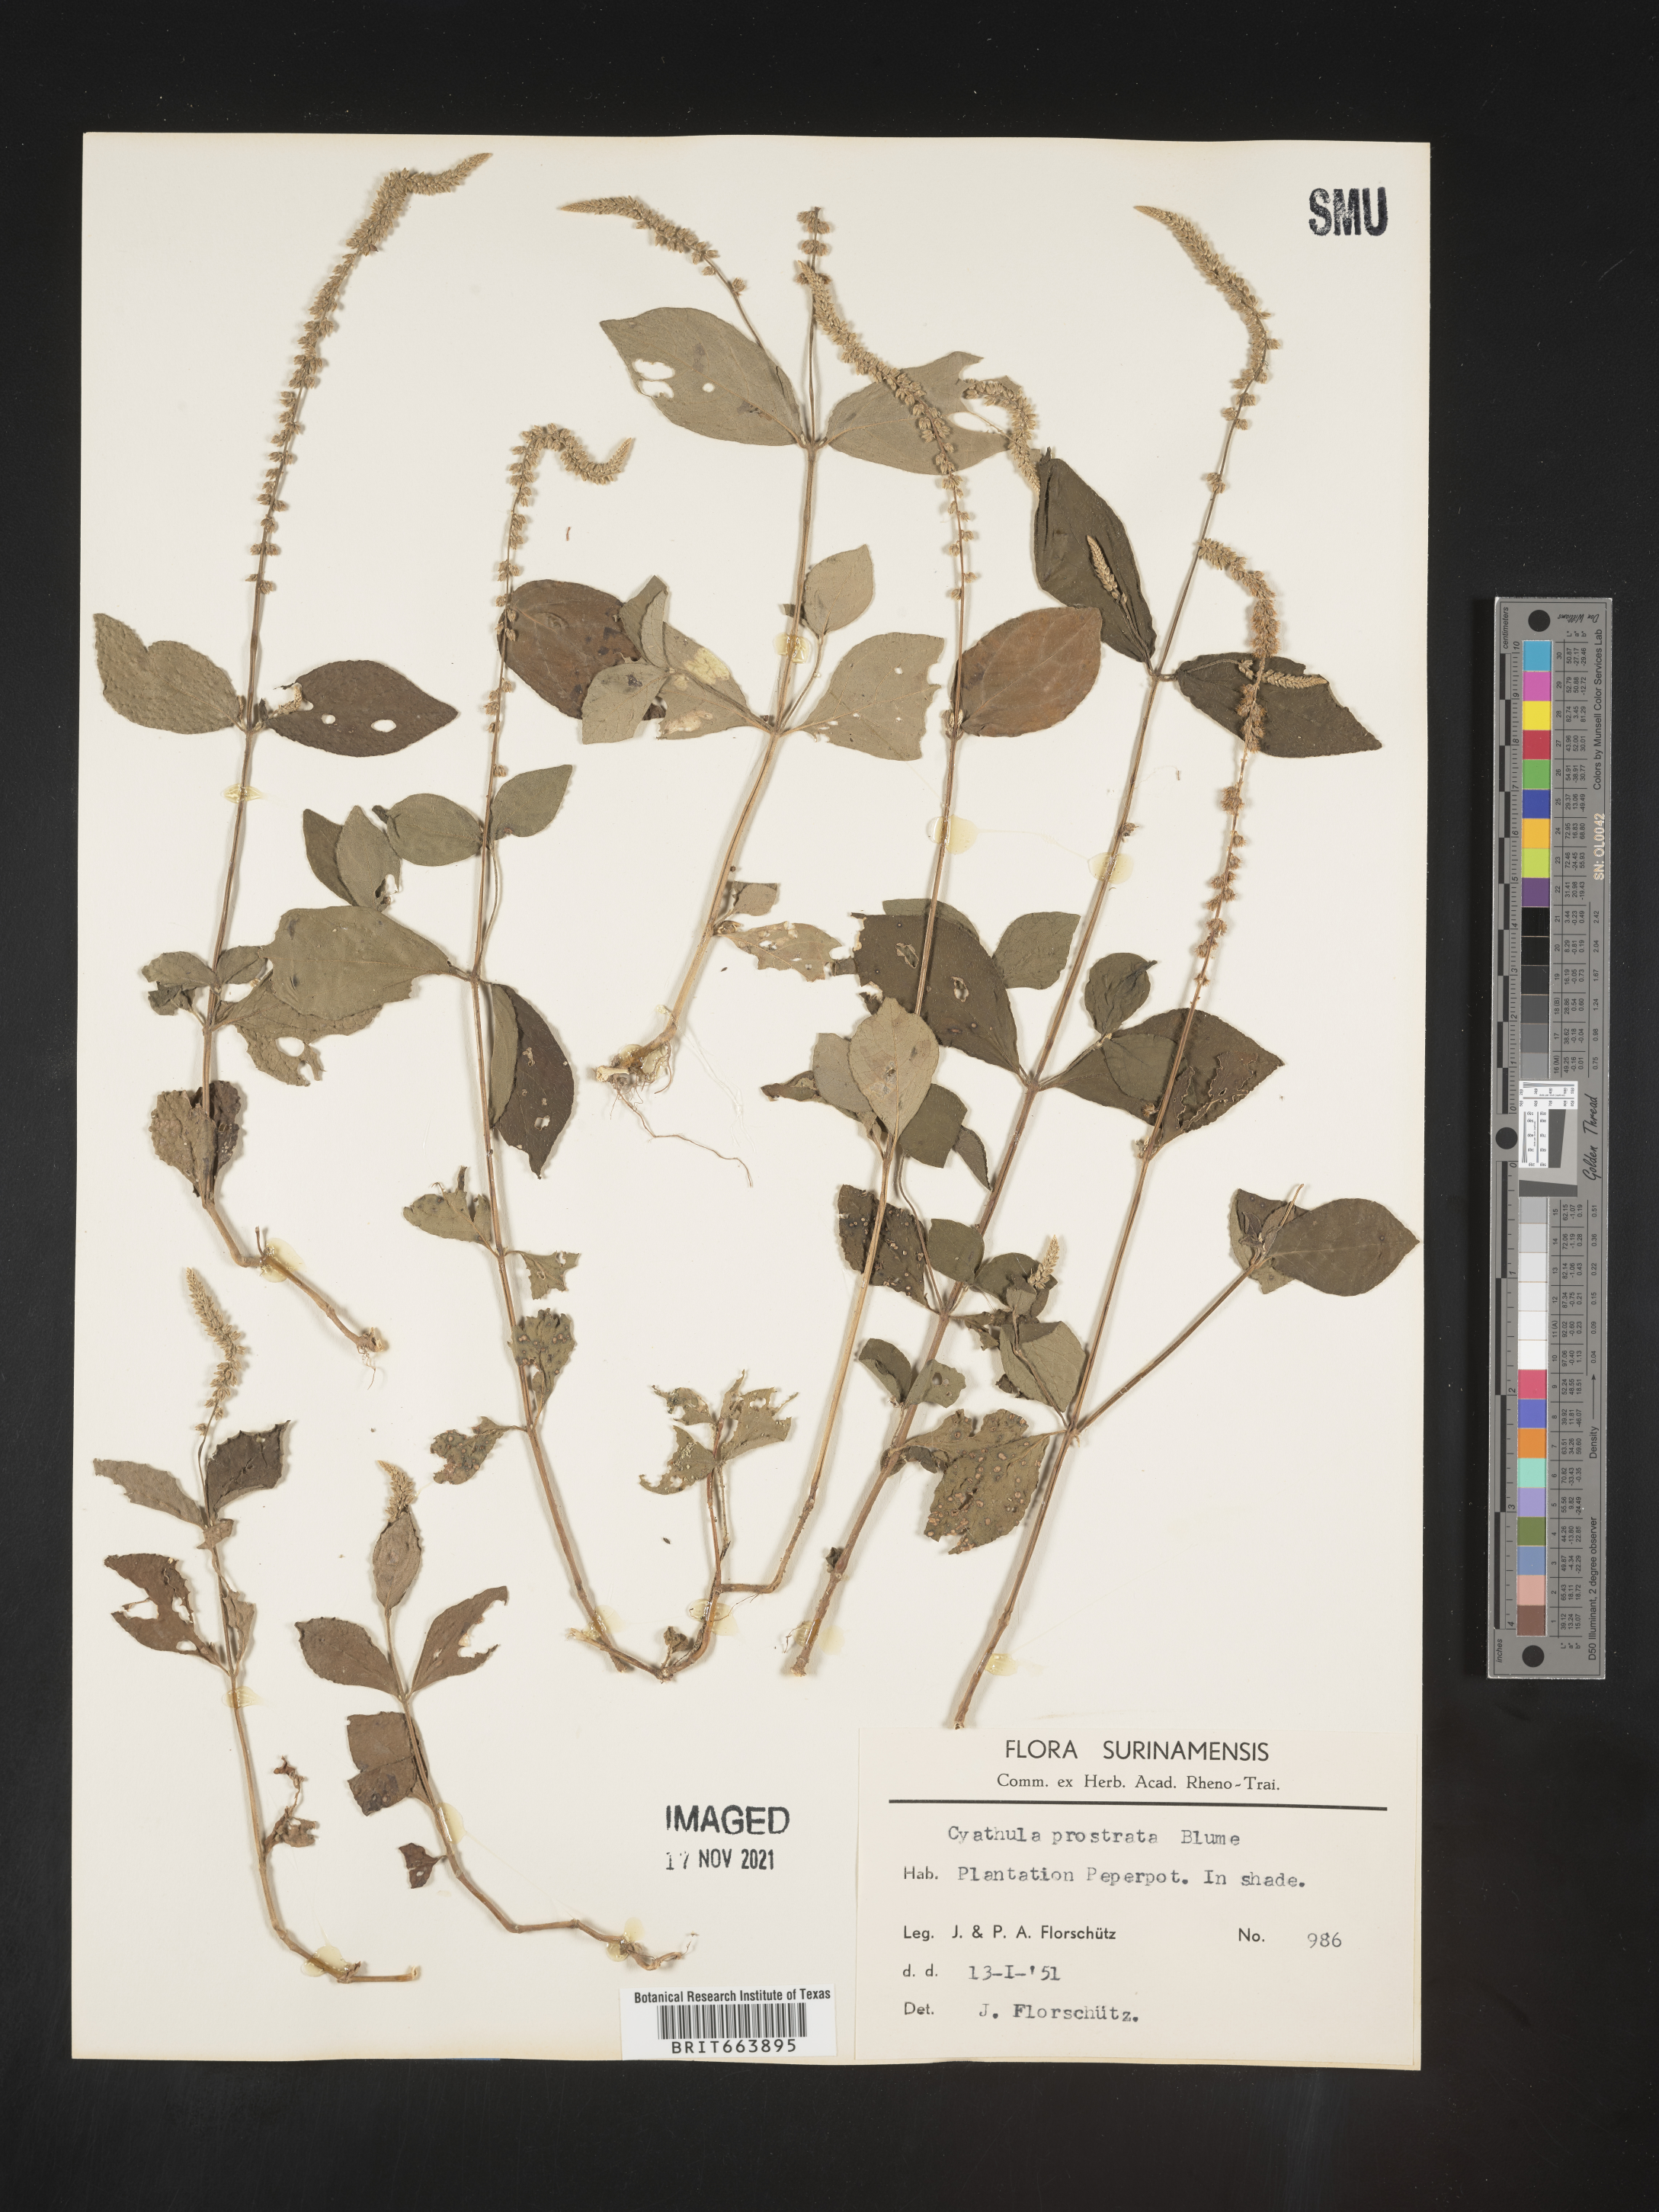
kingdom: Plantae
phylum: Tracheophyta
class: Magnoliopsida
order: Caryophyllales
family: Amaranthaceae
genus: Cyathula
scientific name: Cyathula
